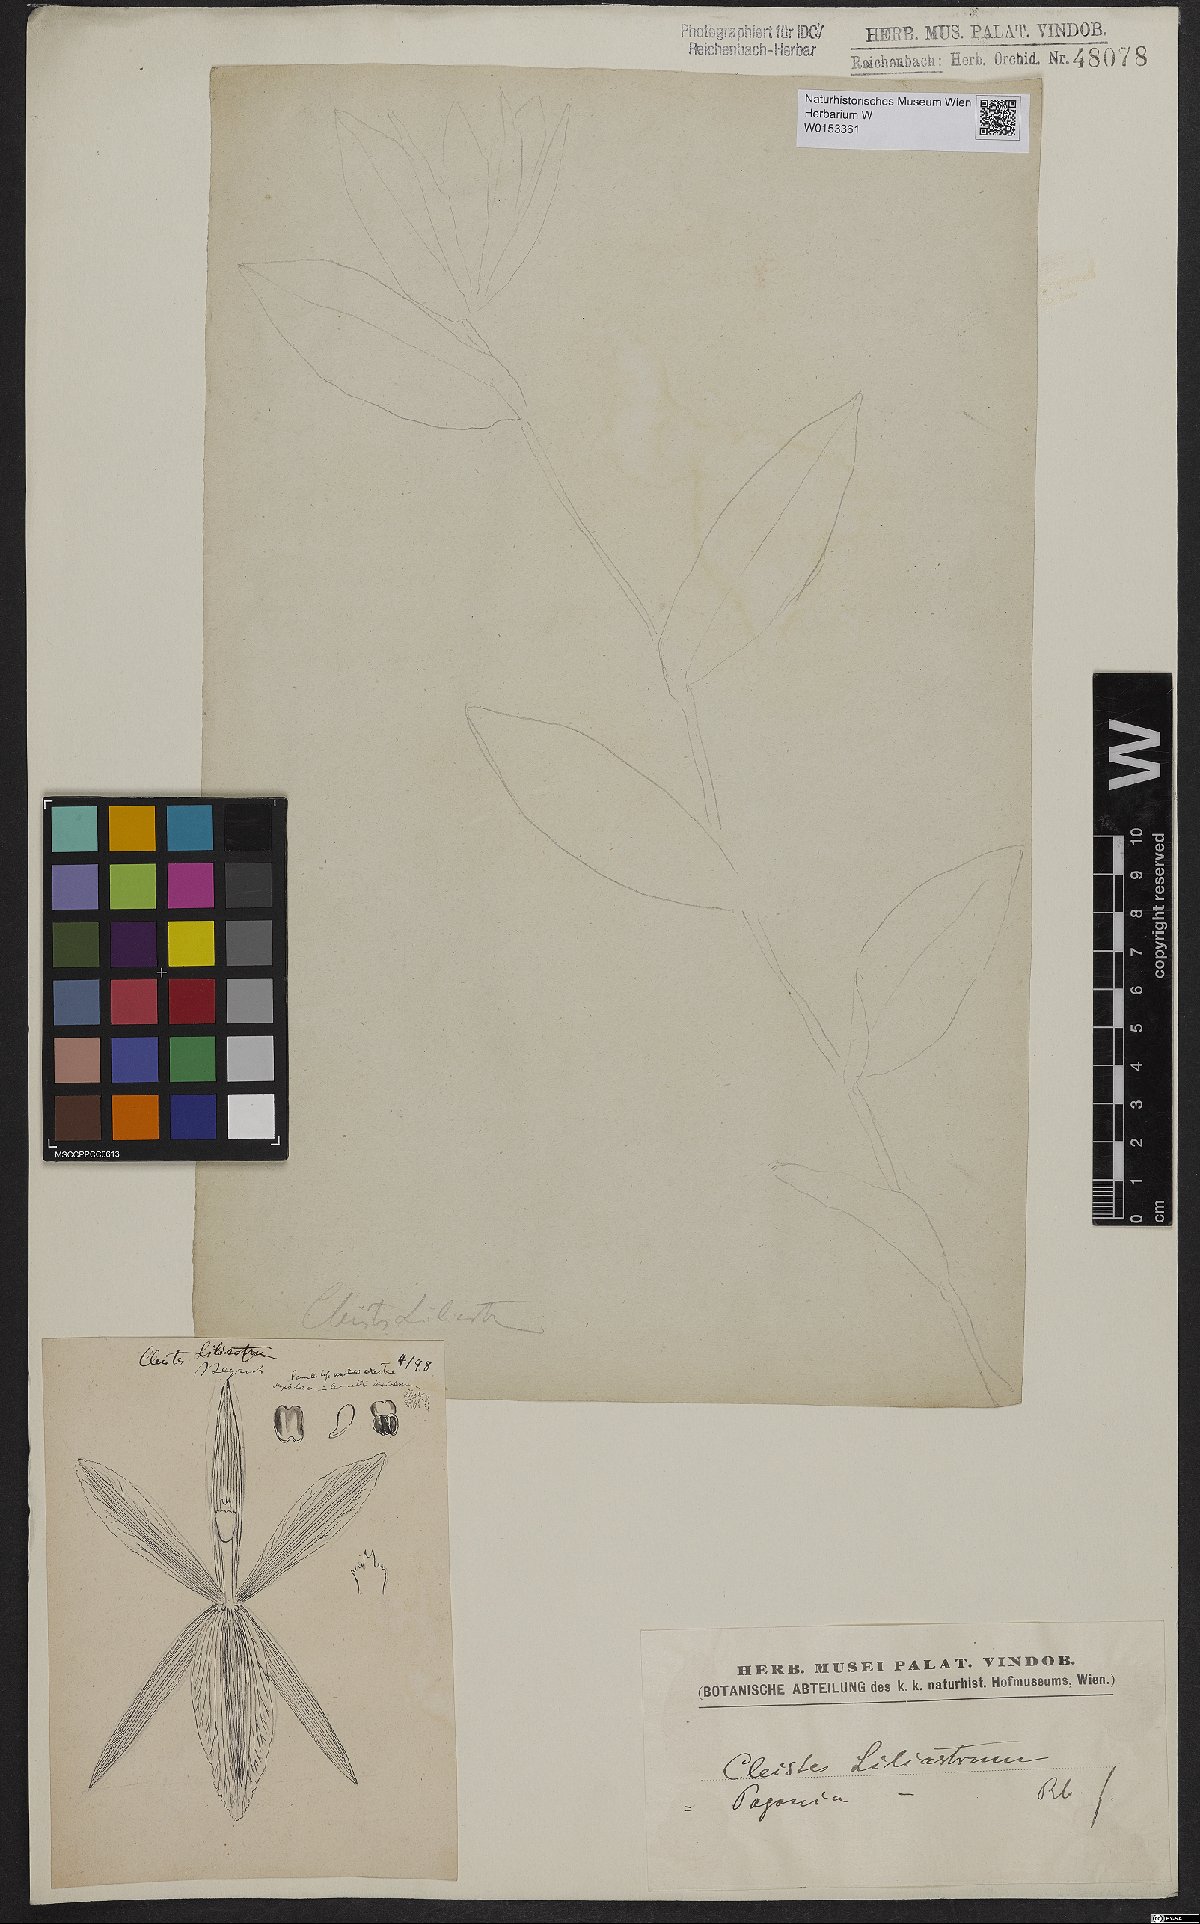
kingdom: Plantae
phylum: Tracheophyta
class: Liliopsida
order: Asparagales
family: Orchidaceae
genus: Cleistes
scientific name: Cleistes liliastrum
